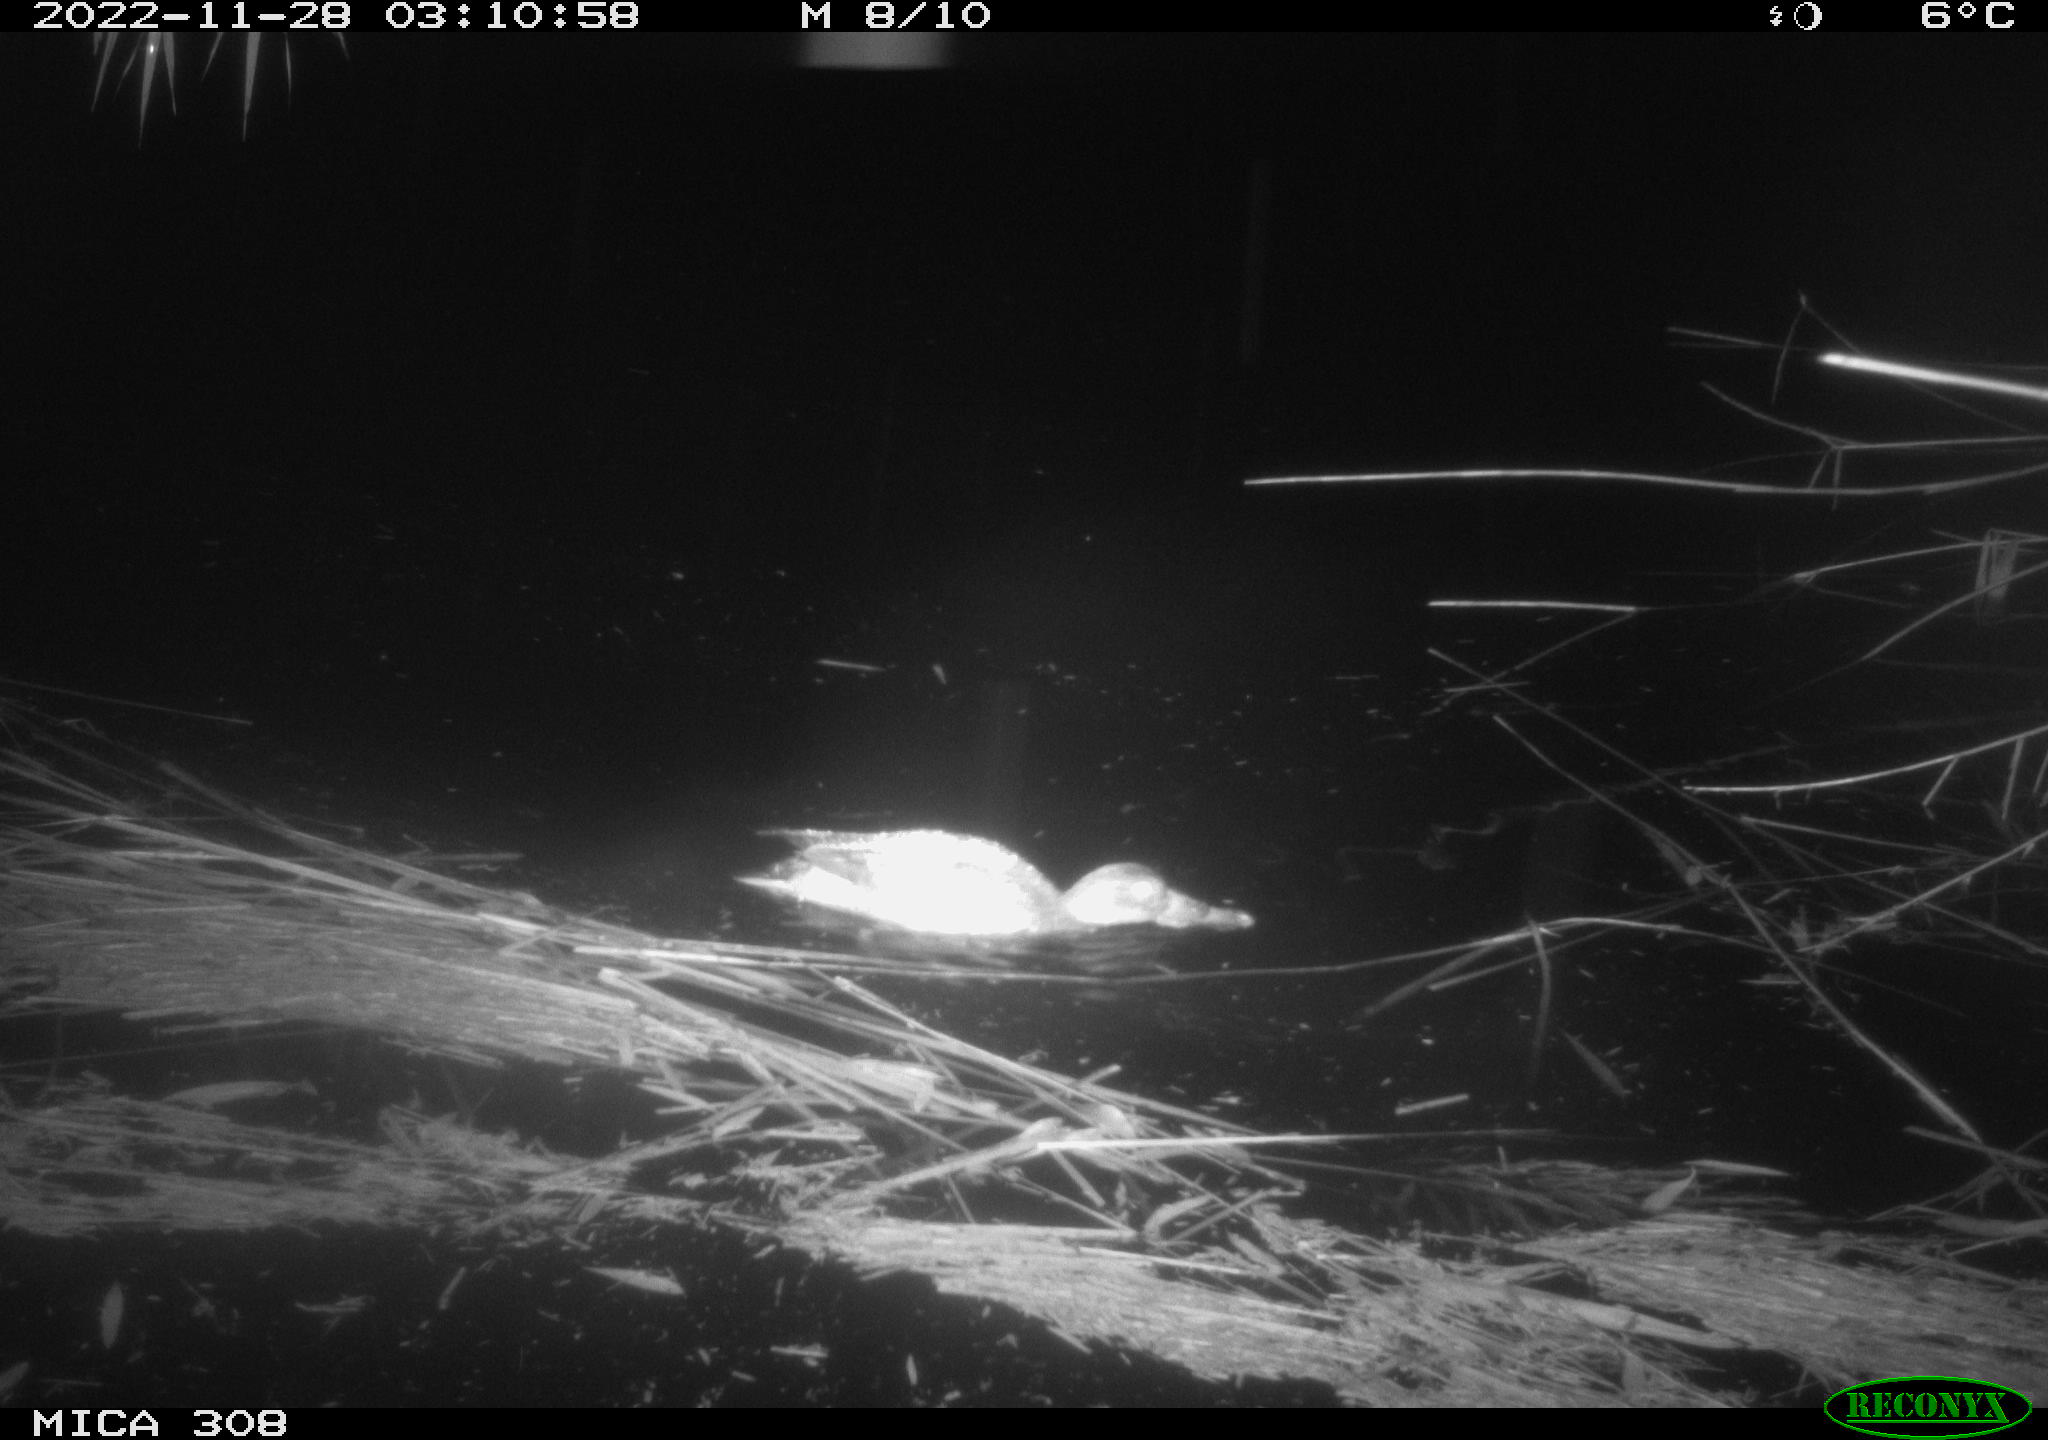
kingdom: Animalia
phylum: Chordata
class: Aves
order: Anseriformes
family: Anatidae
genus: Anas
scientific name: Anas
